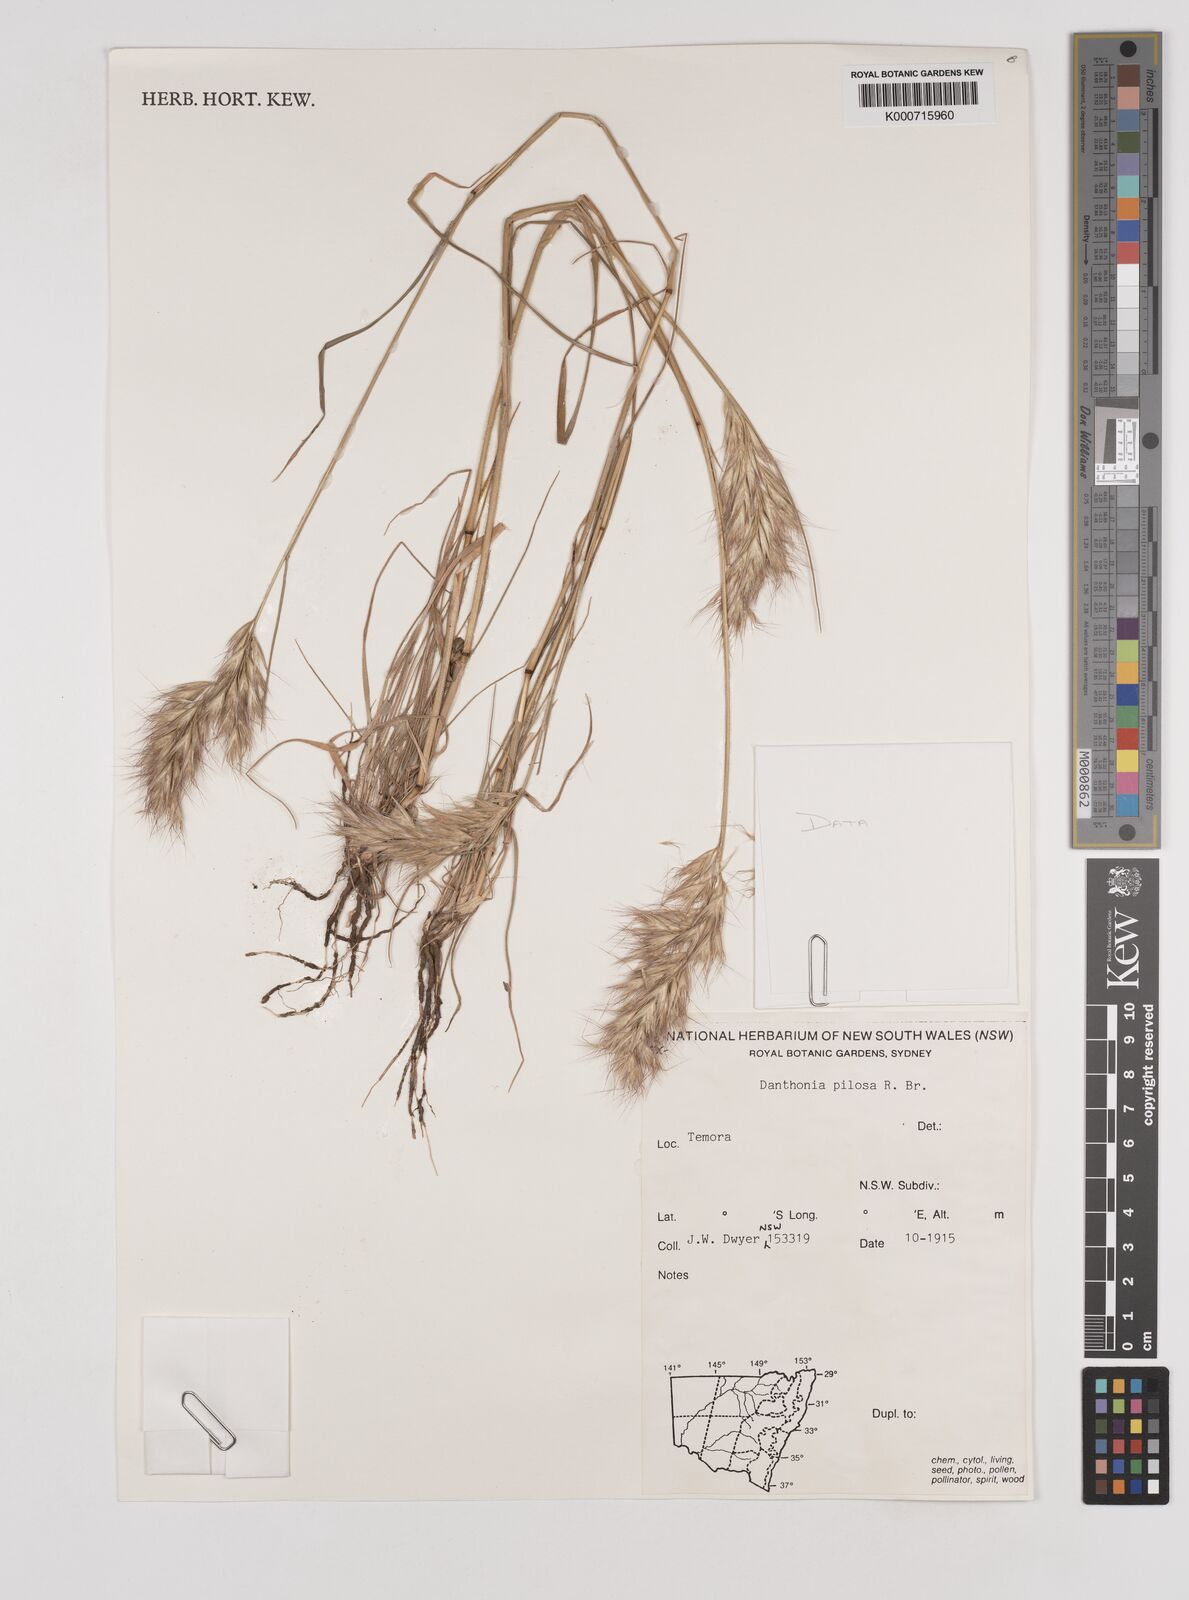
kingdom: Plantae
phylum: Tracheophyta
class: Liliopsida
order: Poales
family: Poaceae
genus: Rytidosperma
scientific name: Rytidosperma pilosum
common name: Hairy wallaby grass
